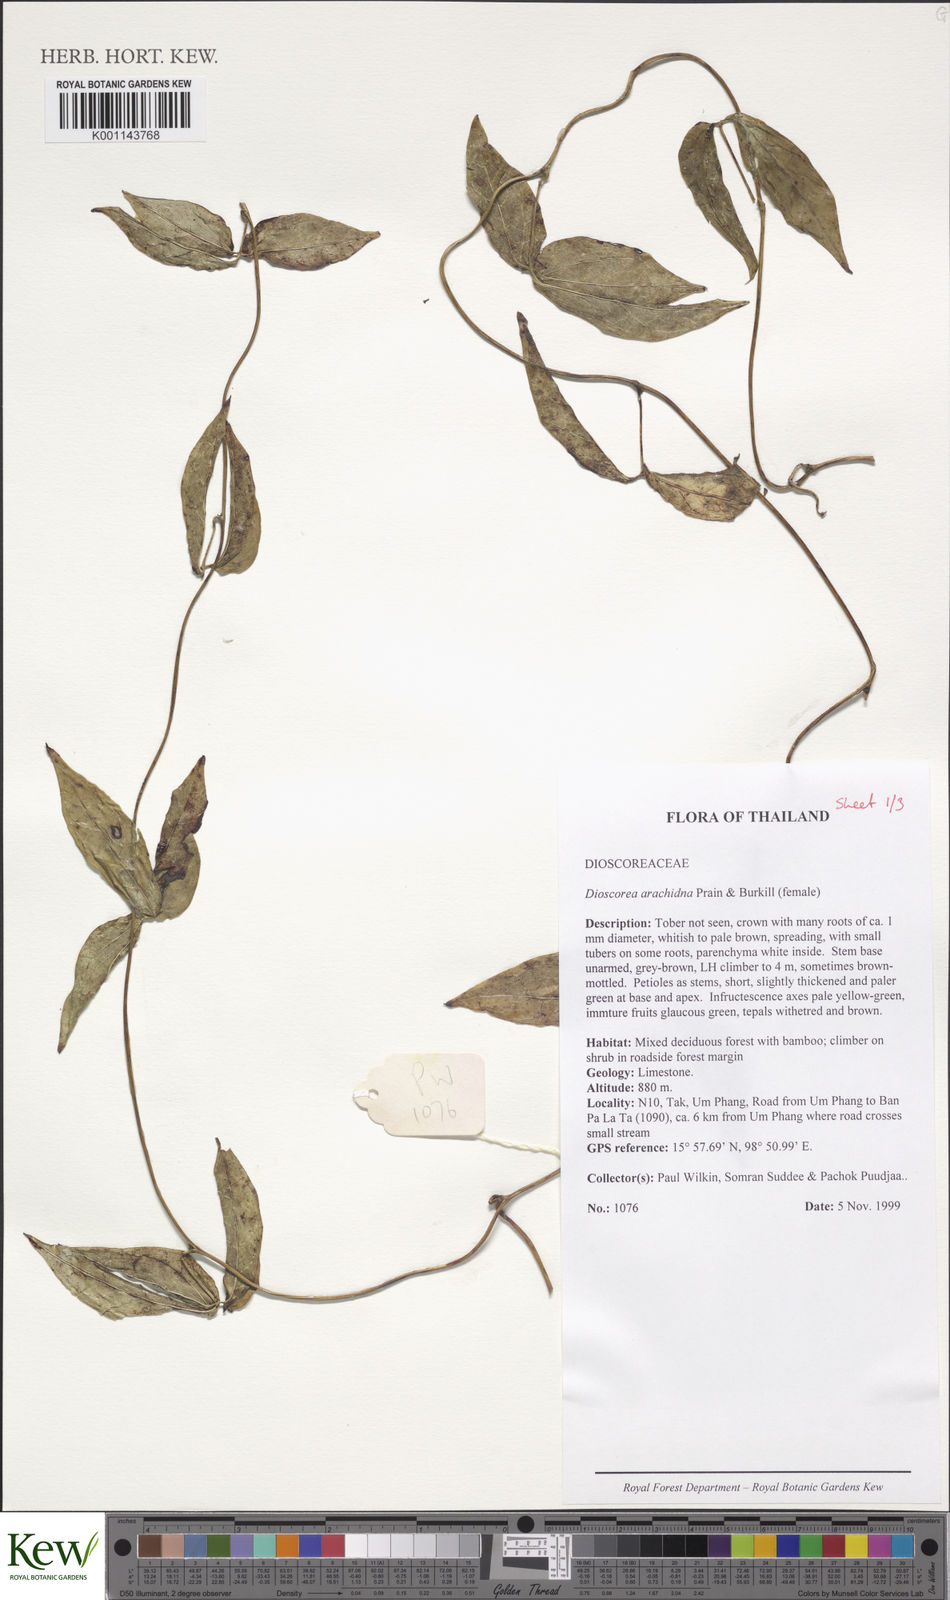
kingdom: Plantae
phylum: Tracheophyta
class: Liliopsida
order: Dioscoreales
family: Dioscoreaceae
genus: Dioscorea
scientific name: Dioscorea arachidna
